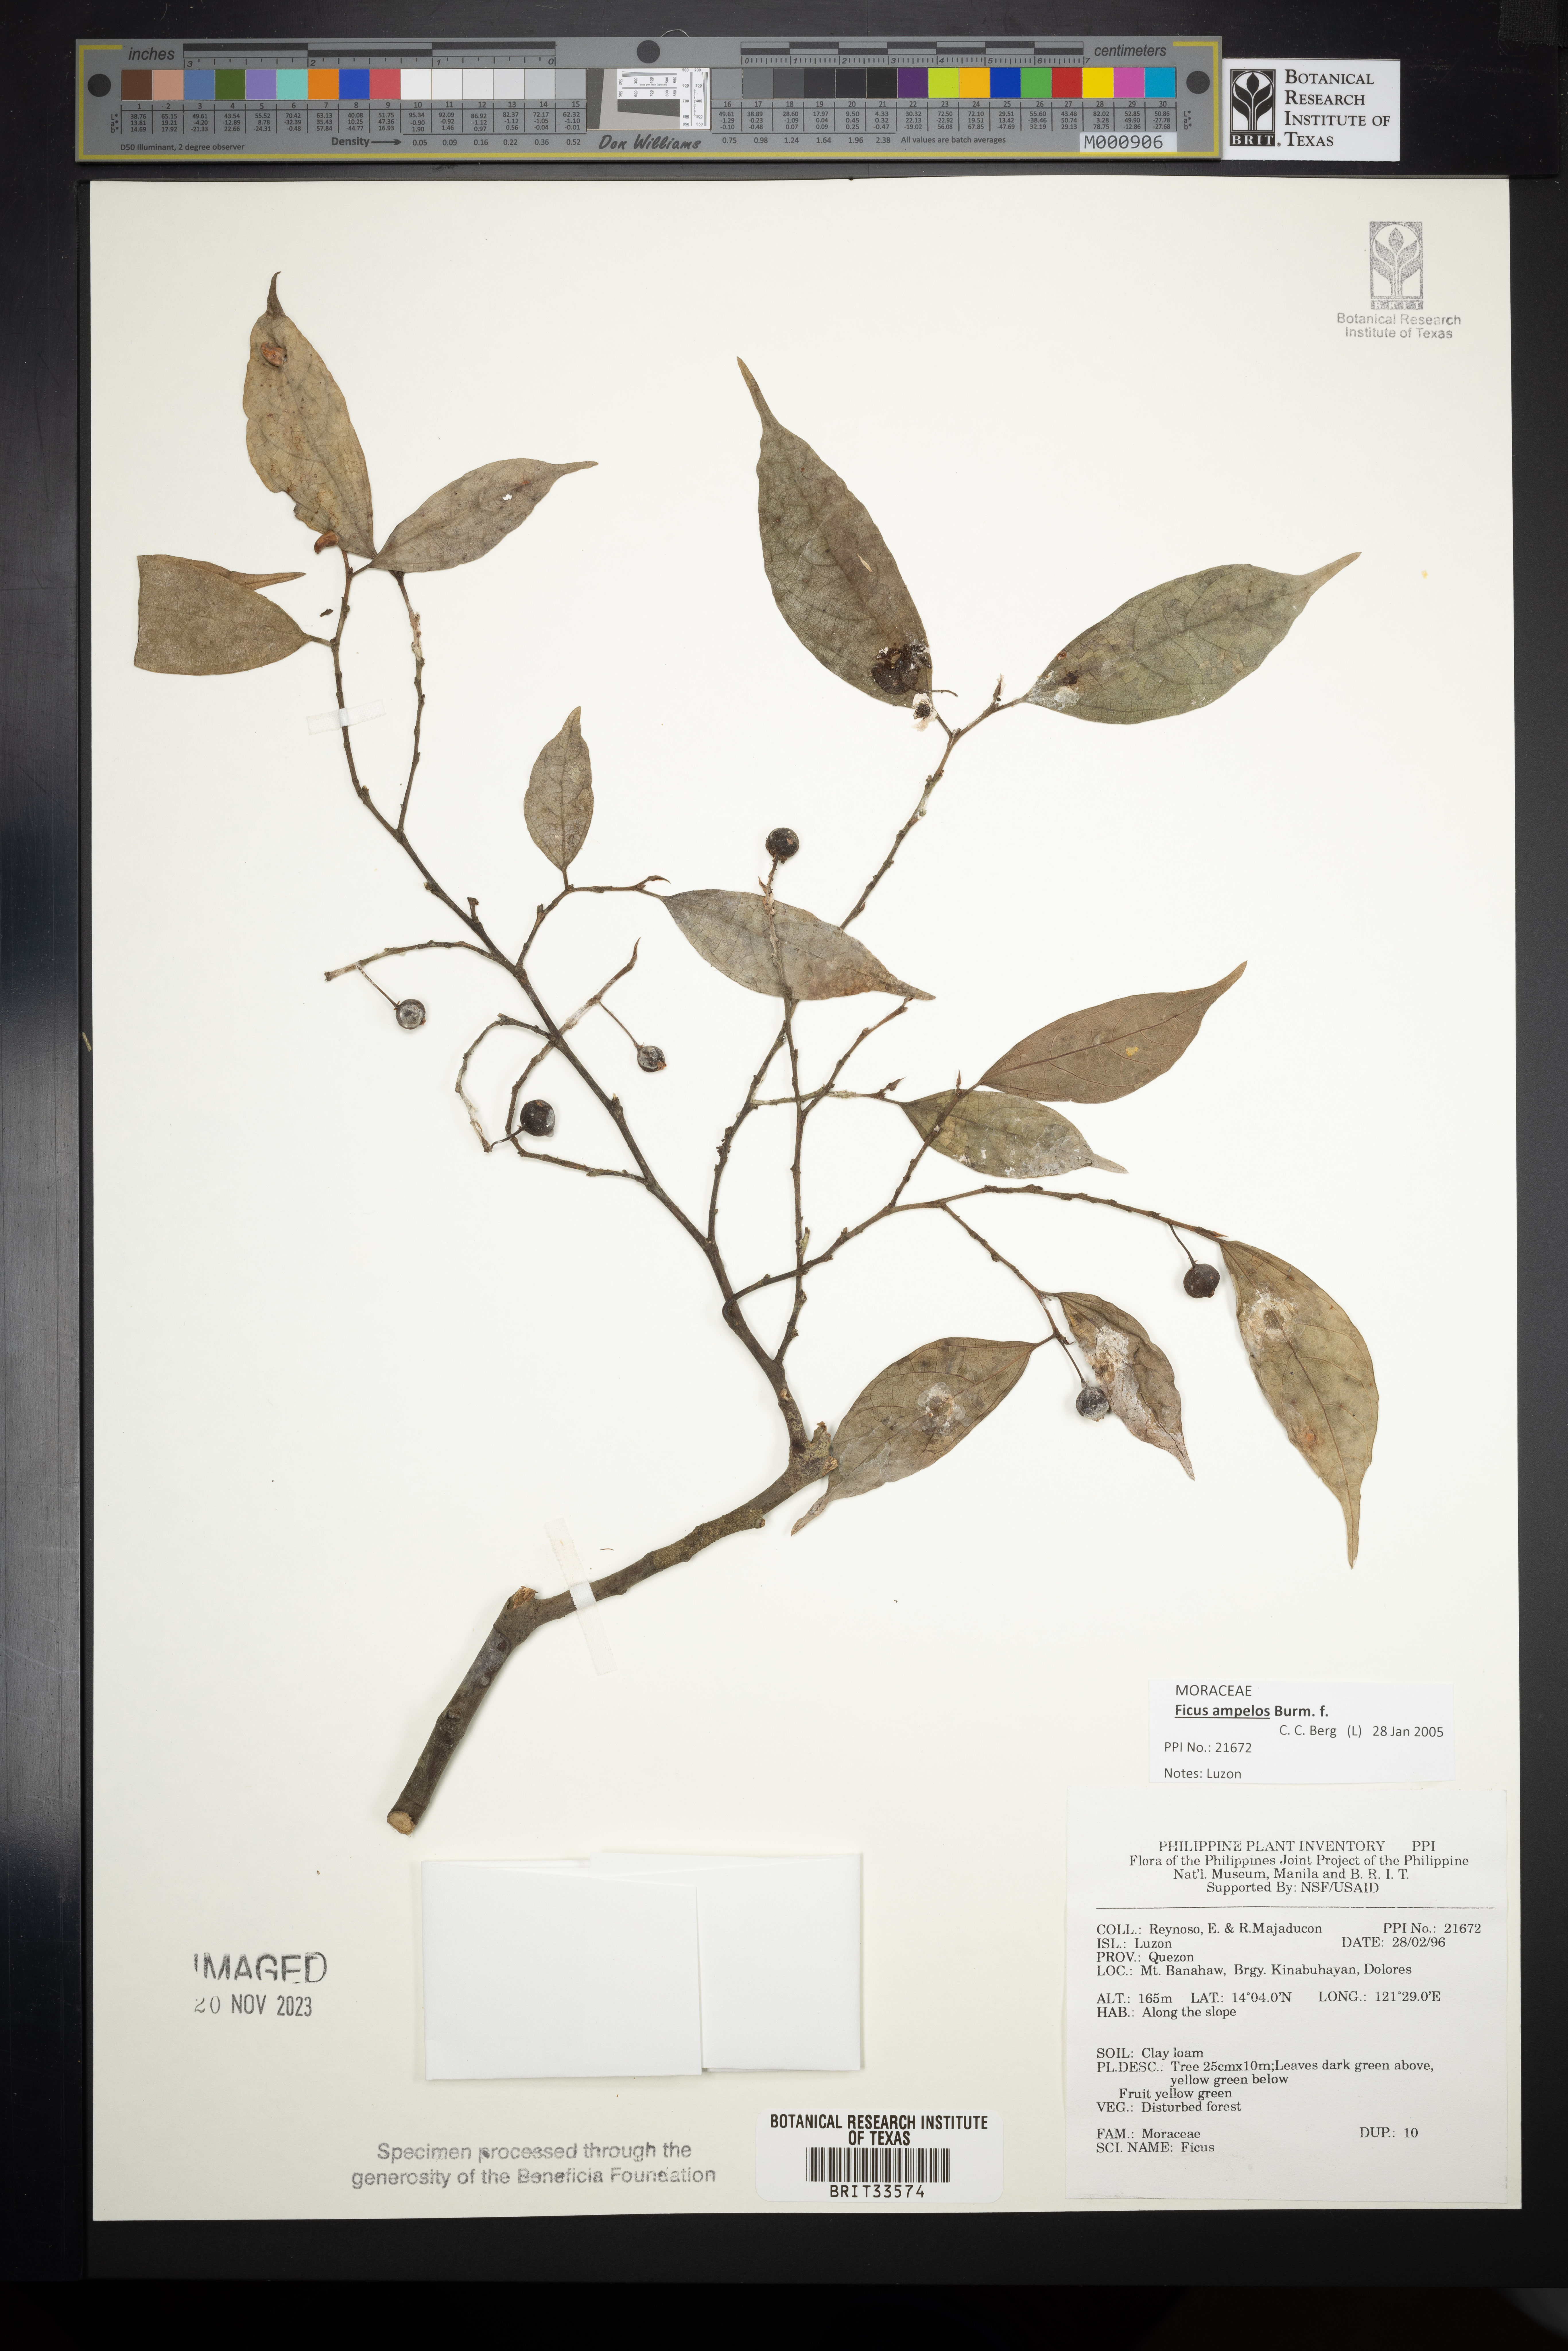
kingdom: Plantae
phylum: Tracheophyta
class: Magnoliopsida
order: Rosales
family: Moraceae
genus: Ficus
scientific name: Ficus
